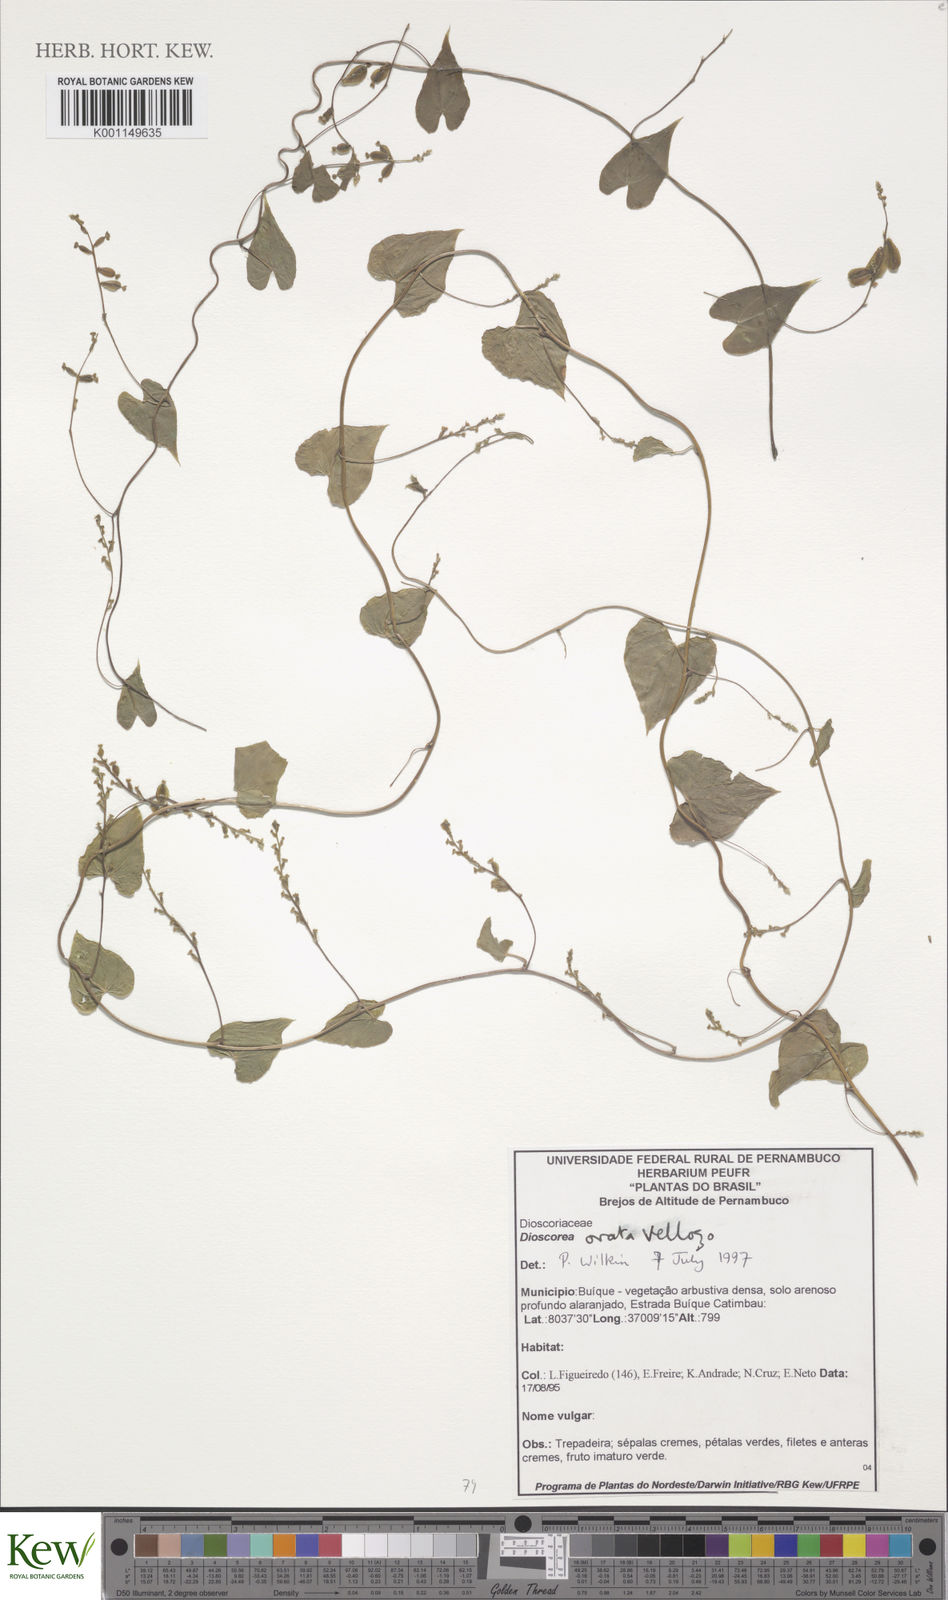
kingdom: Plantae
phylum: Tracheophyta
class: Liliopsida
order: Dioscoreales
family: Dioscoreaceae
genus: Dioscorea
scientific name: Dioscorea ovata
